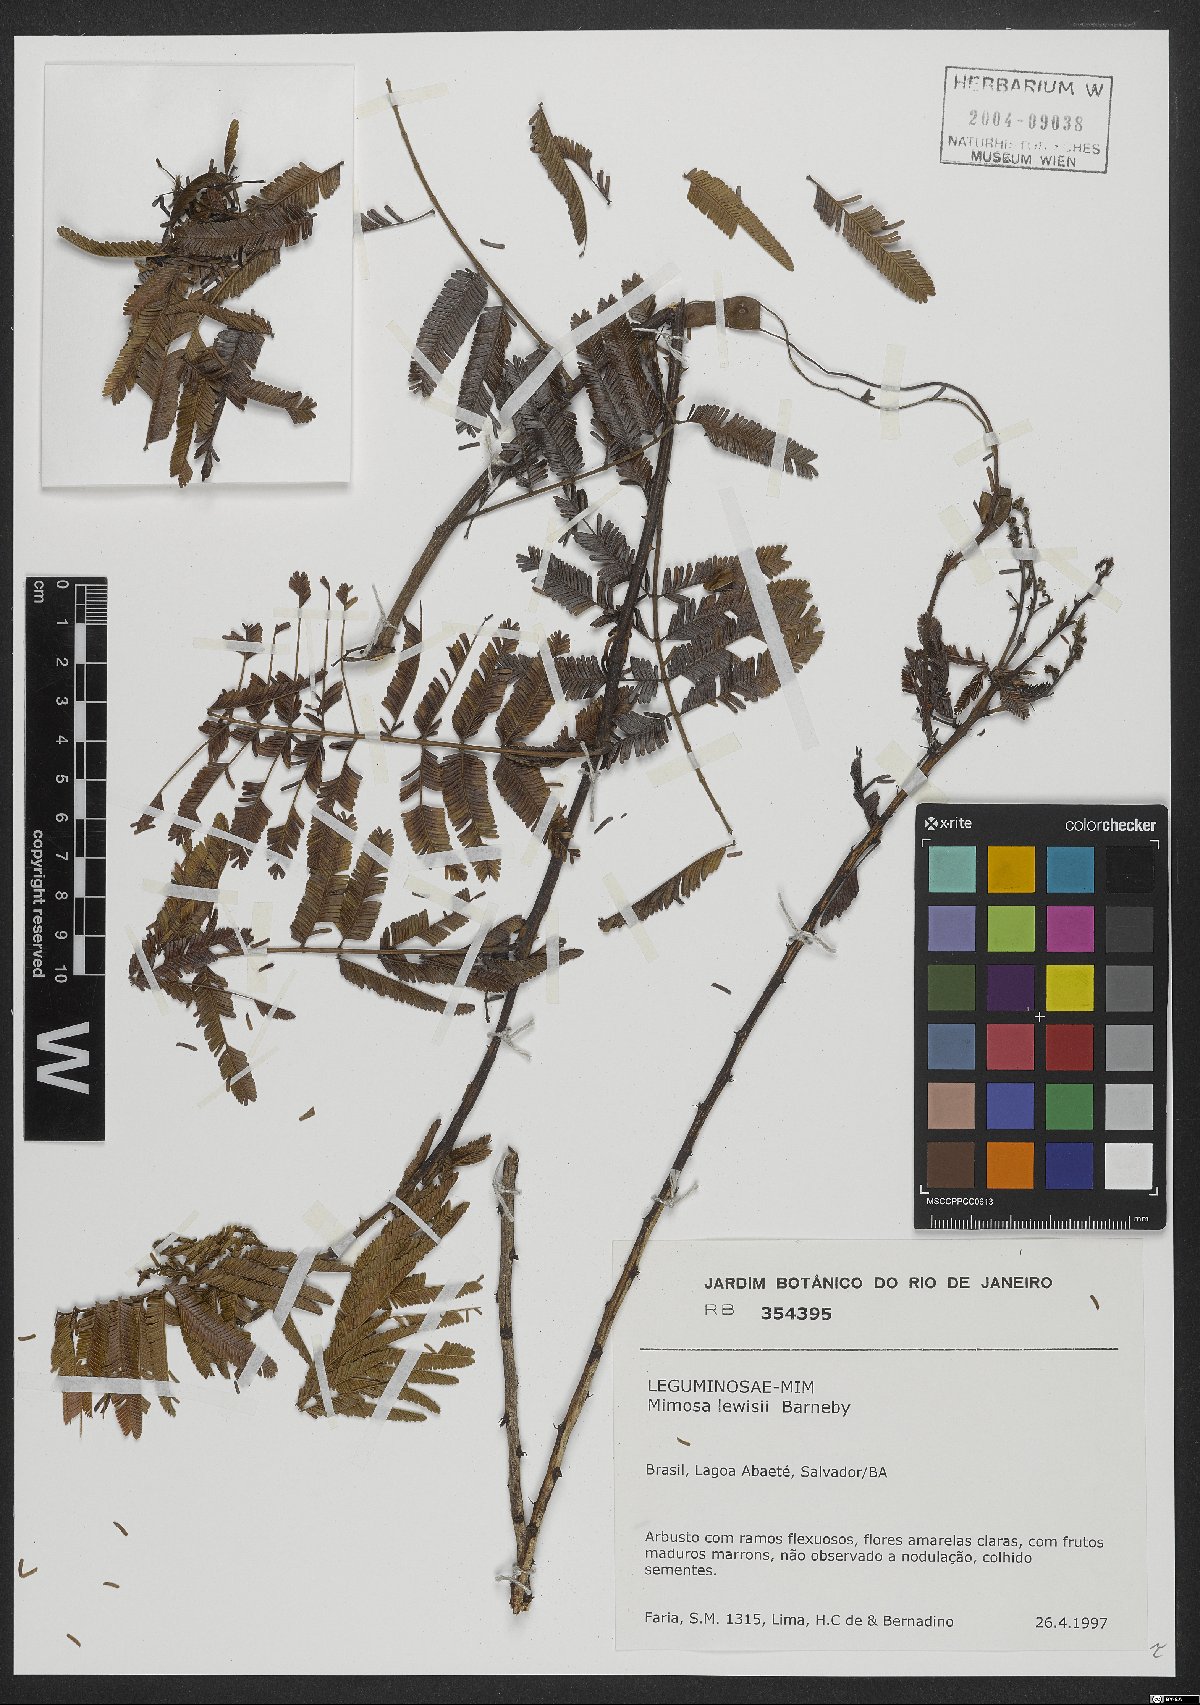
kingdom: Plantae
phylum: Tracheophyta
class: Magnoliopsida
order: Fabales
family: Fabaceae
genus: Mimosa
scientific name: Mimosa lewisii
